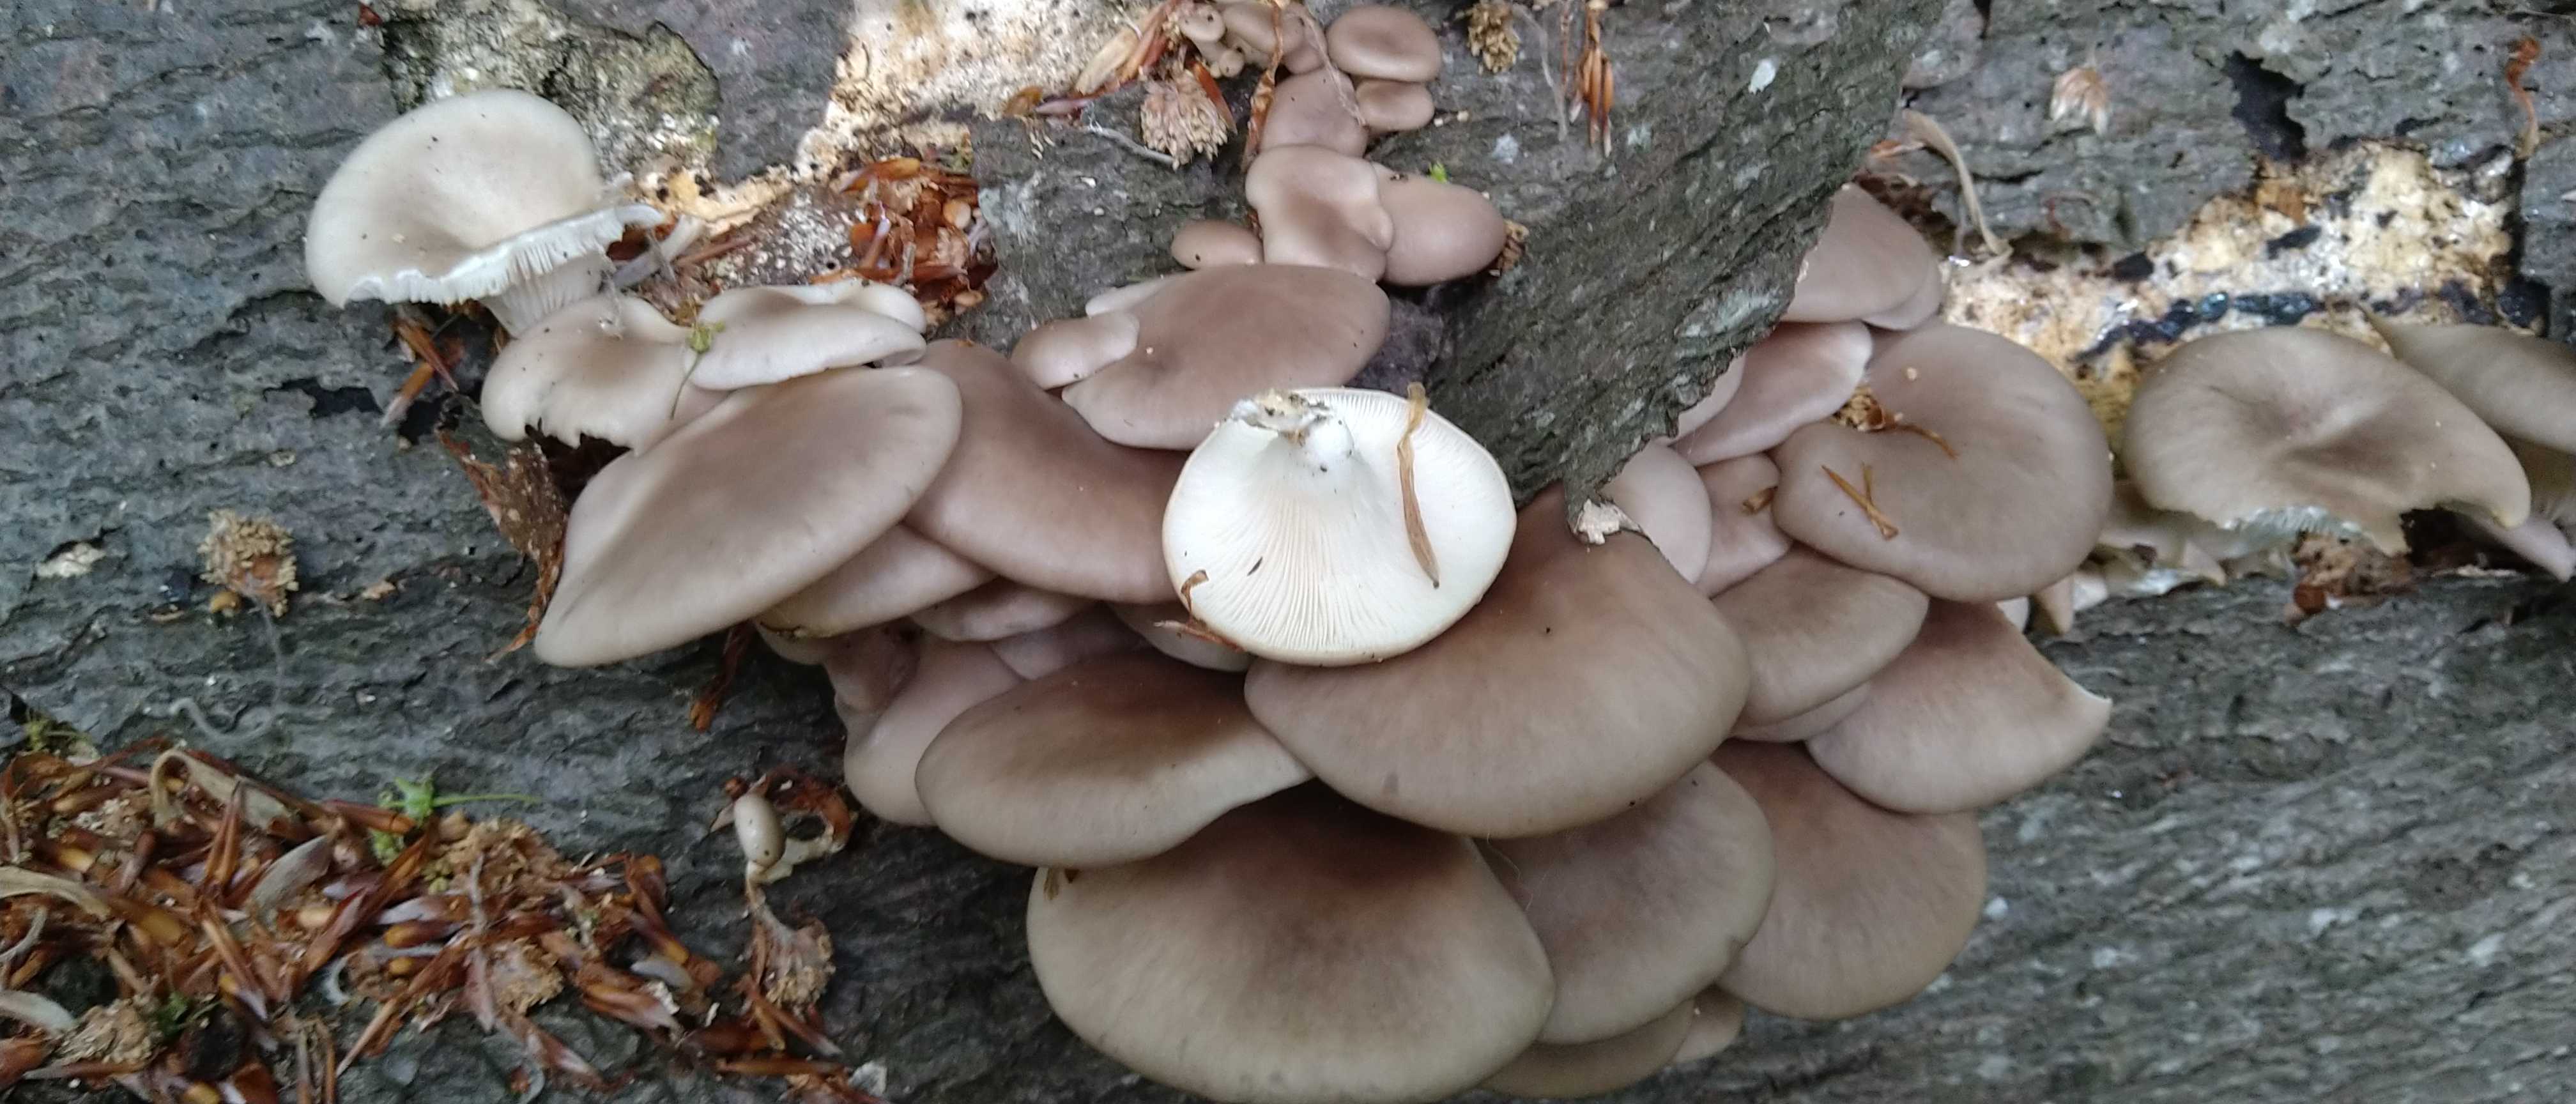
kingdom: Fungi
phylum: Basidiomycota
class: Agaricomycetes
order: Agaricales
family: Pleurotaceae
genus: Pleurotus
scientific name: Pleurotus pulmonarius
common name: sommer-østershat
